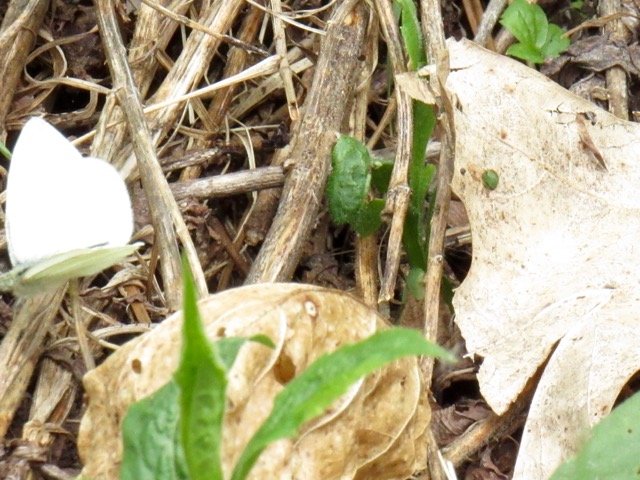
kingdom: Animalia
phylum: Arthropoda
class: Insecta
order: Lepidoptera
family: Pieridae
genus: Pieris
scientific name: Pieris virginiensis
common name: West Virginia White
